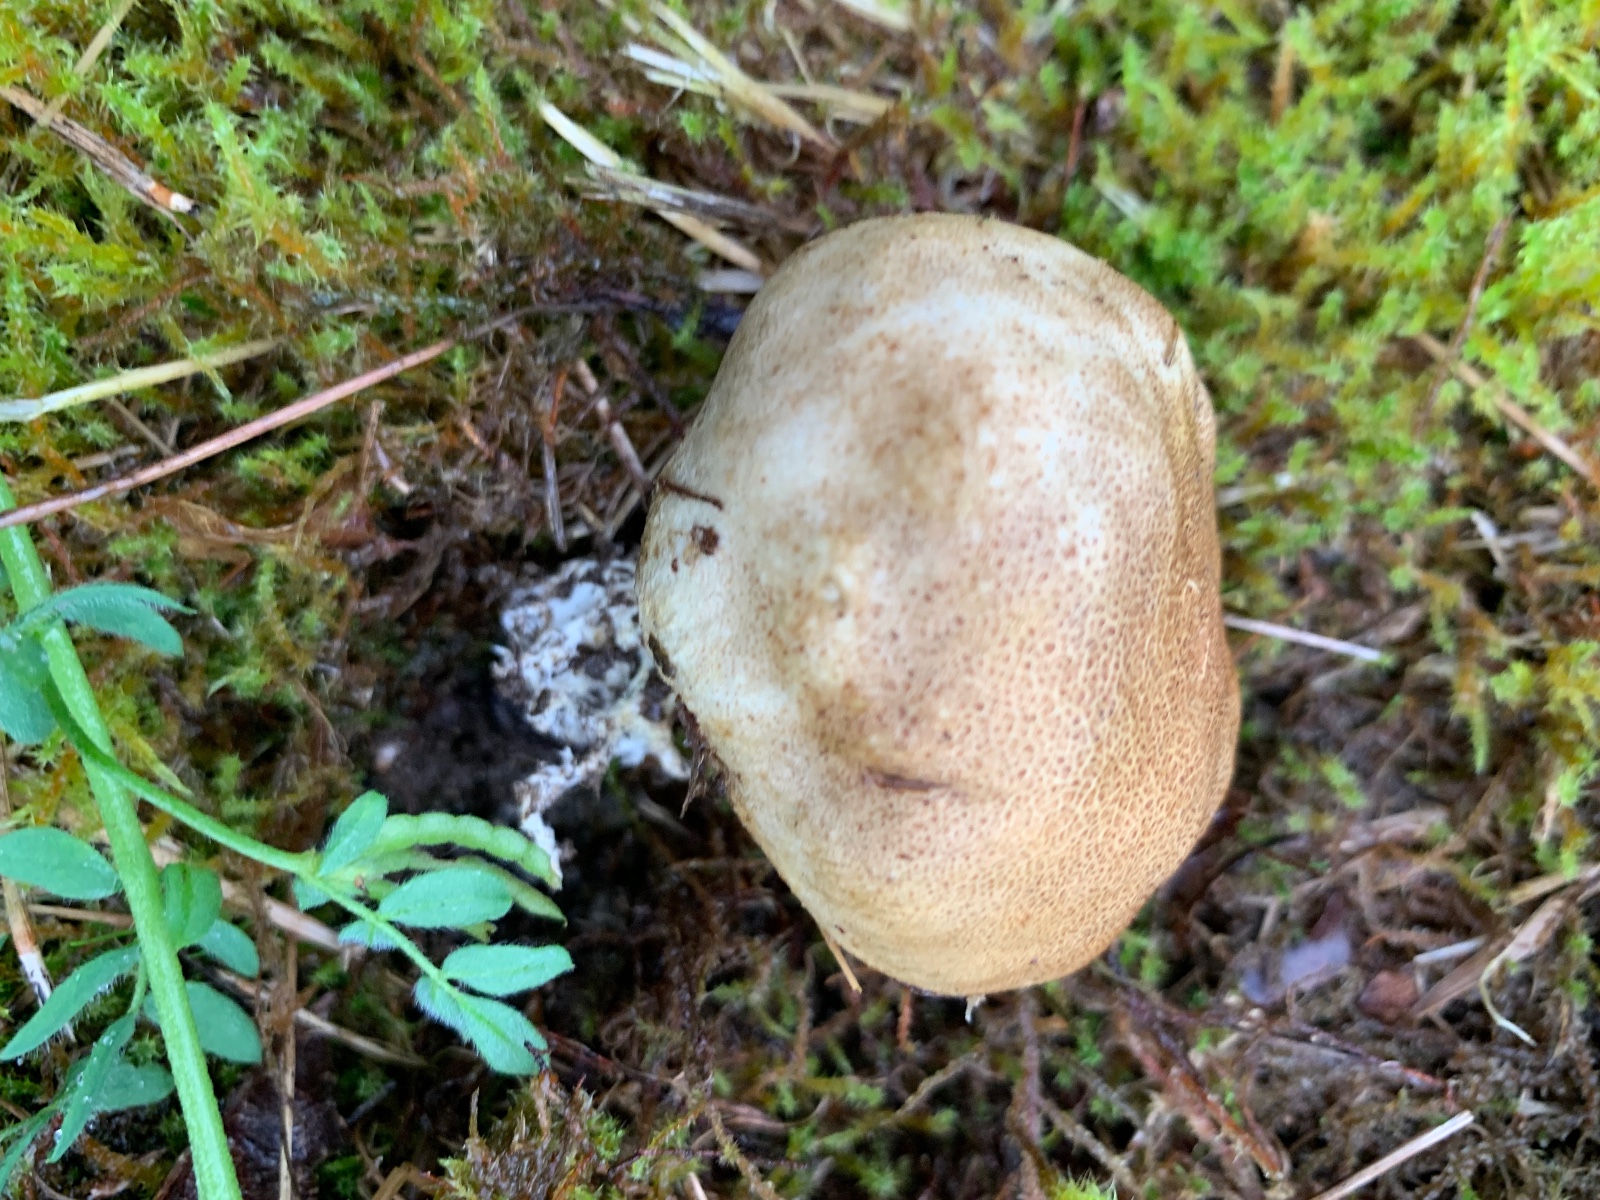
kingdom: Fungi
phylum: Basidiomycota
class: Agaricomycetes
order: Boletales
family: Sclerodermataceae
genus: Scleroderma
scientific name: Scleroderma areolatum
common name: plettet bruskbold
